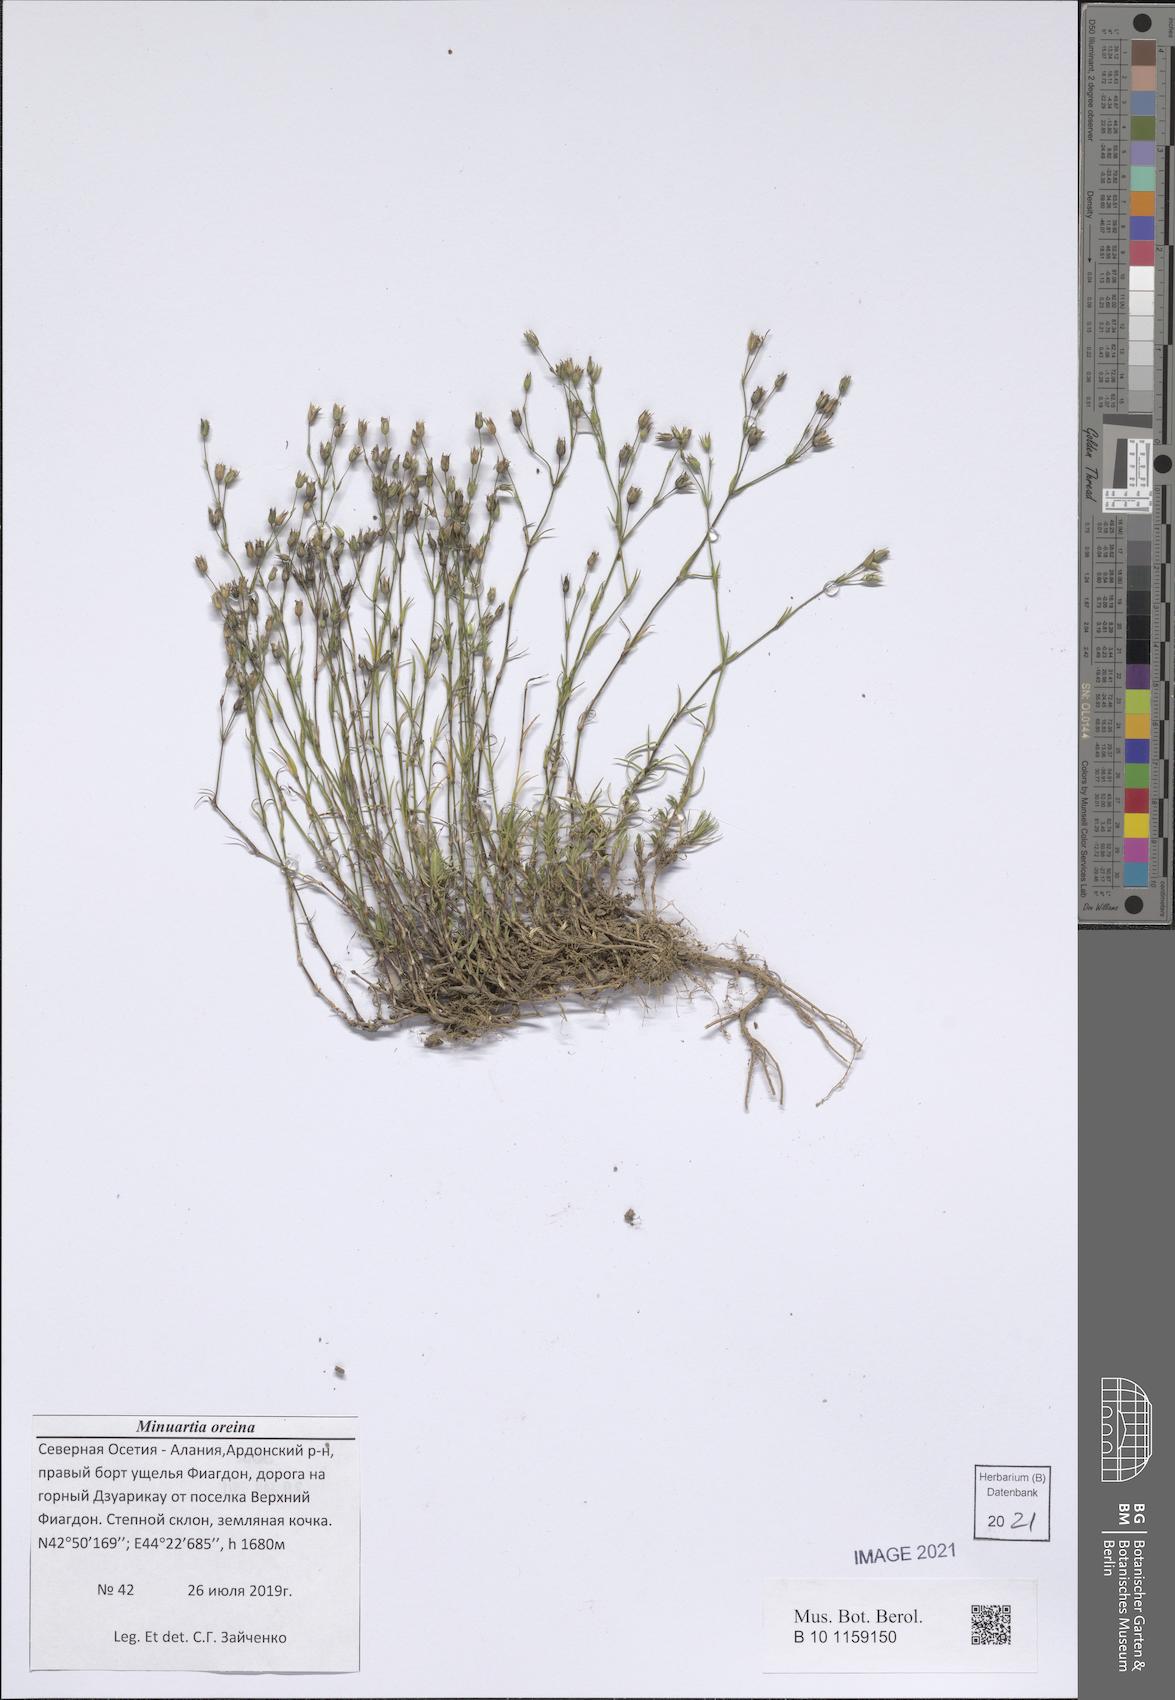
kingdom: Plantae
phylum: Tracheophyta
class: Magnoliopsida
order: Caryophyllales
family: Caryophyllaceae
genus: Minuartia
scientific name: Minuartia hirsuta
